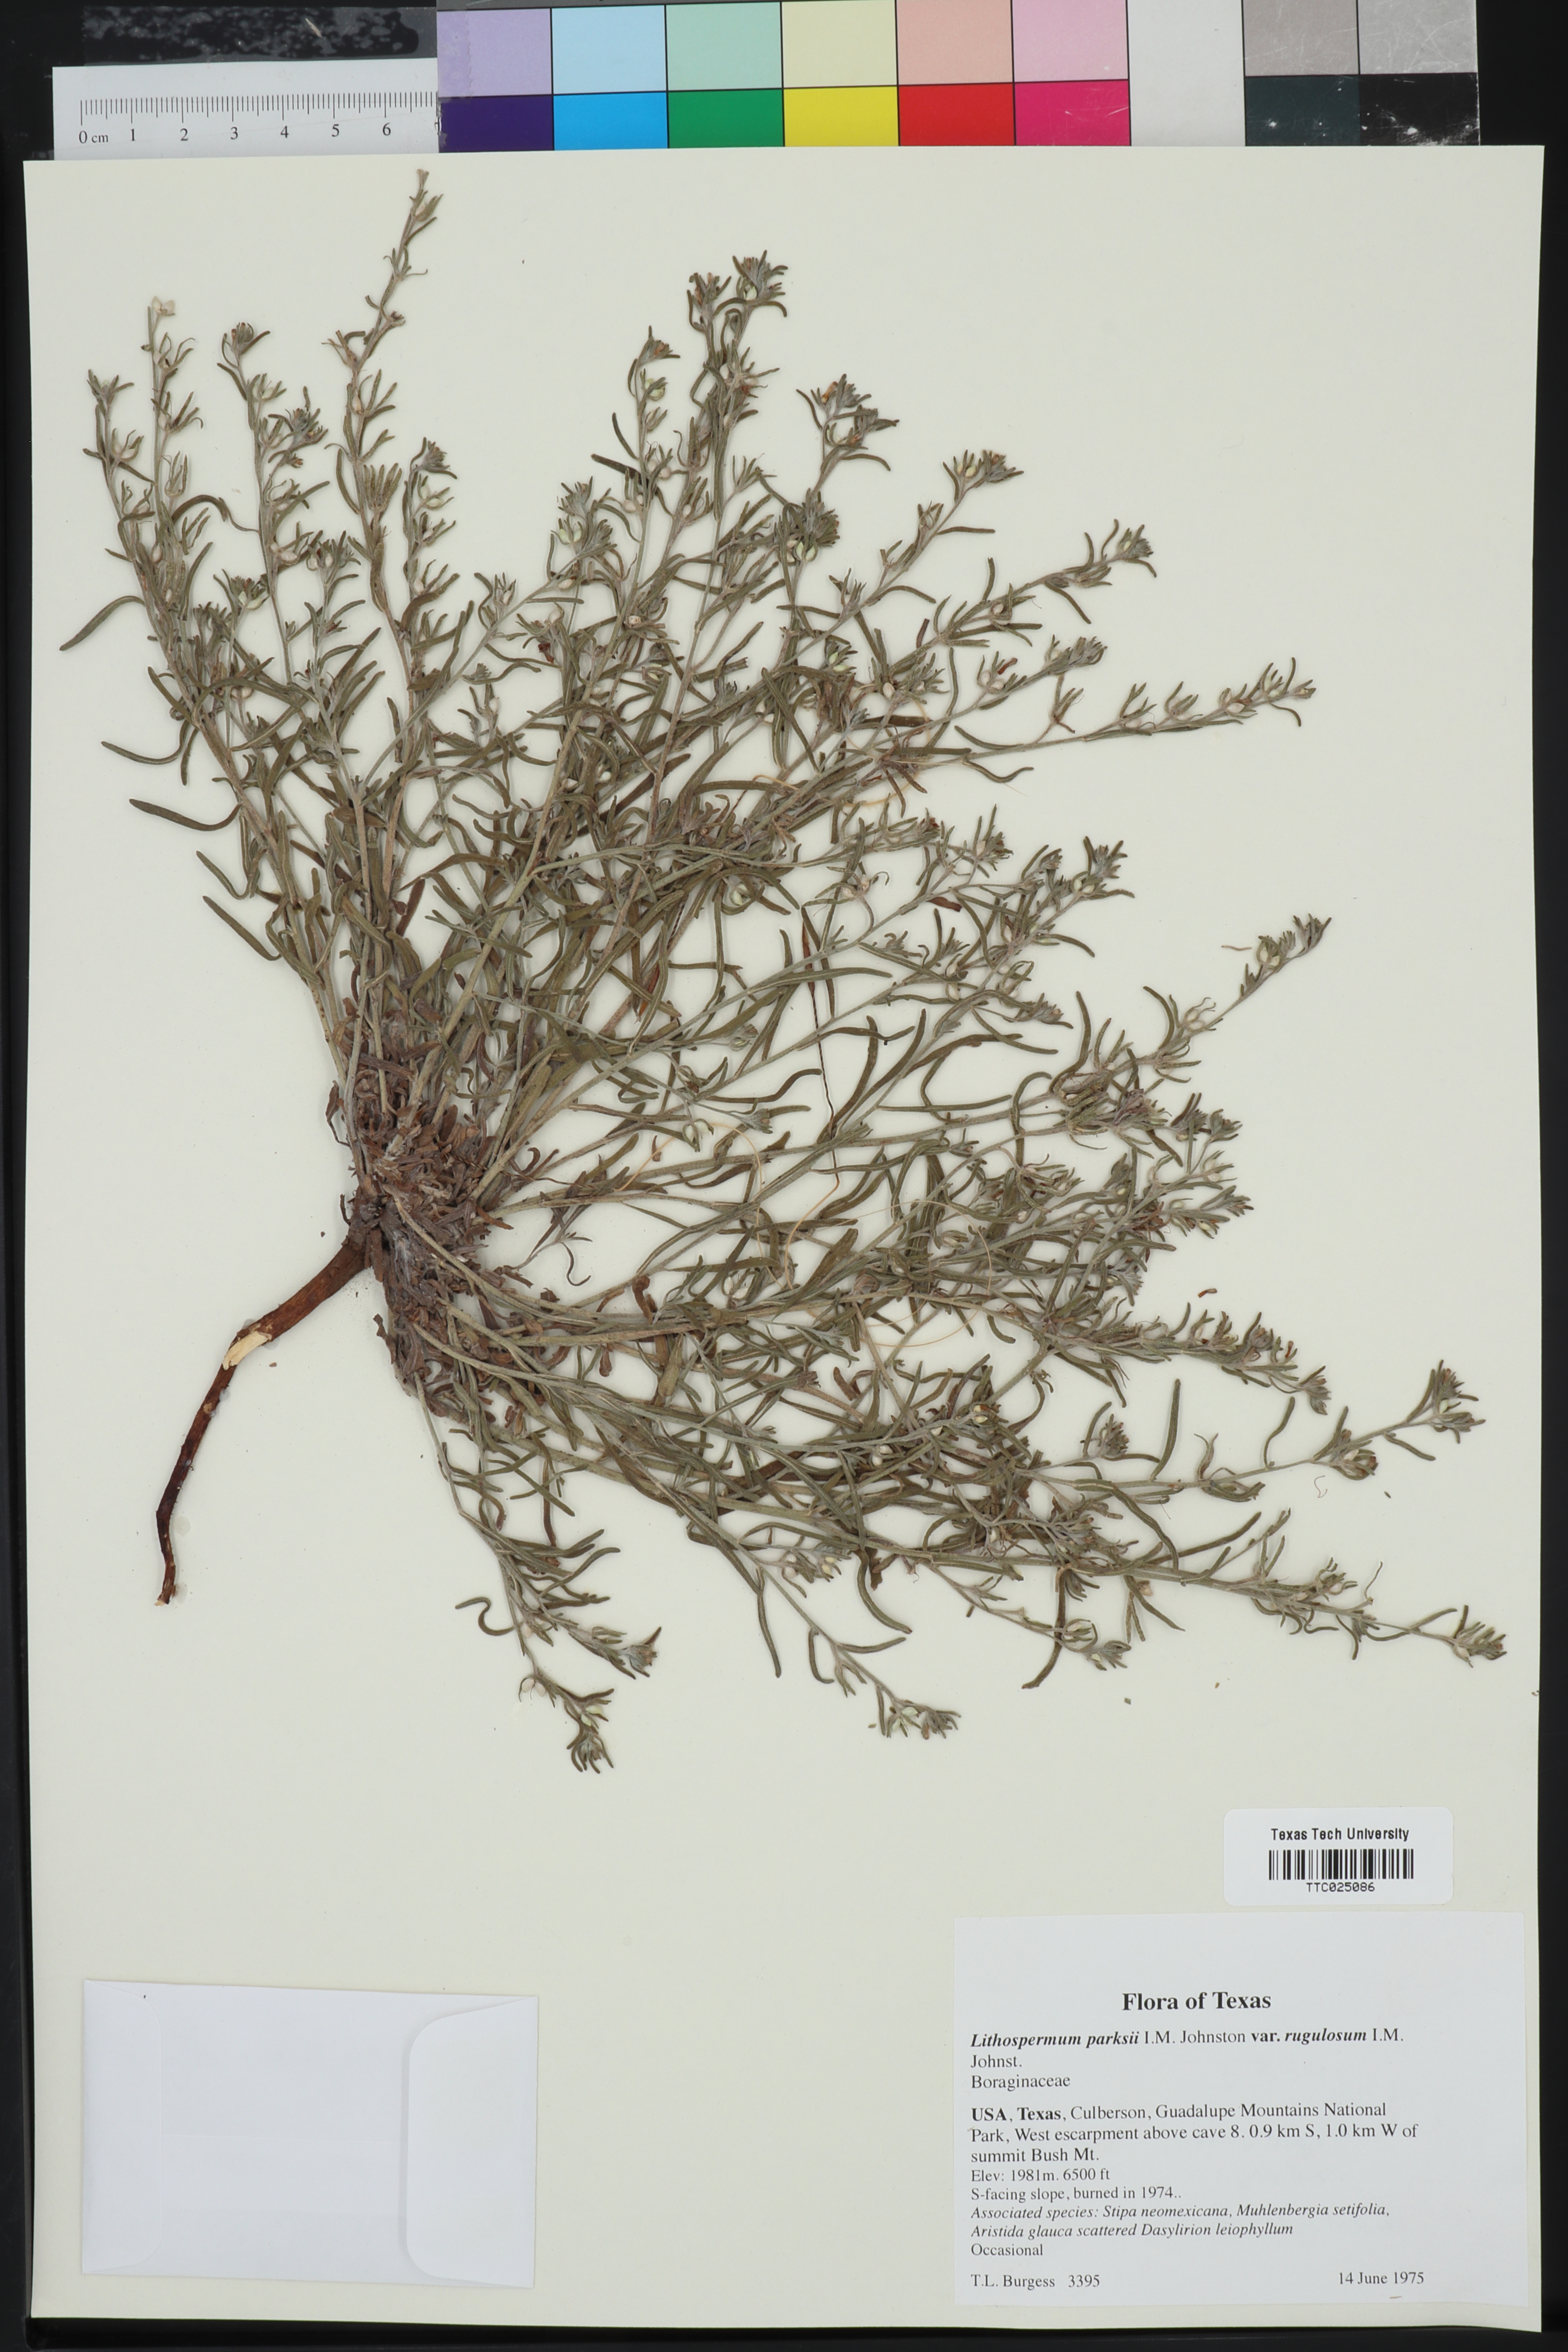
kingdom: Plantae
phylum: Tracheophyta
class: Magnoliopsida
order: Boraginales
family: Boraginaceae
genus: Lithospermum
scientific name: Lithospermum parksii
